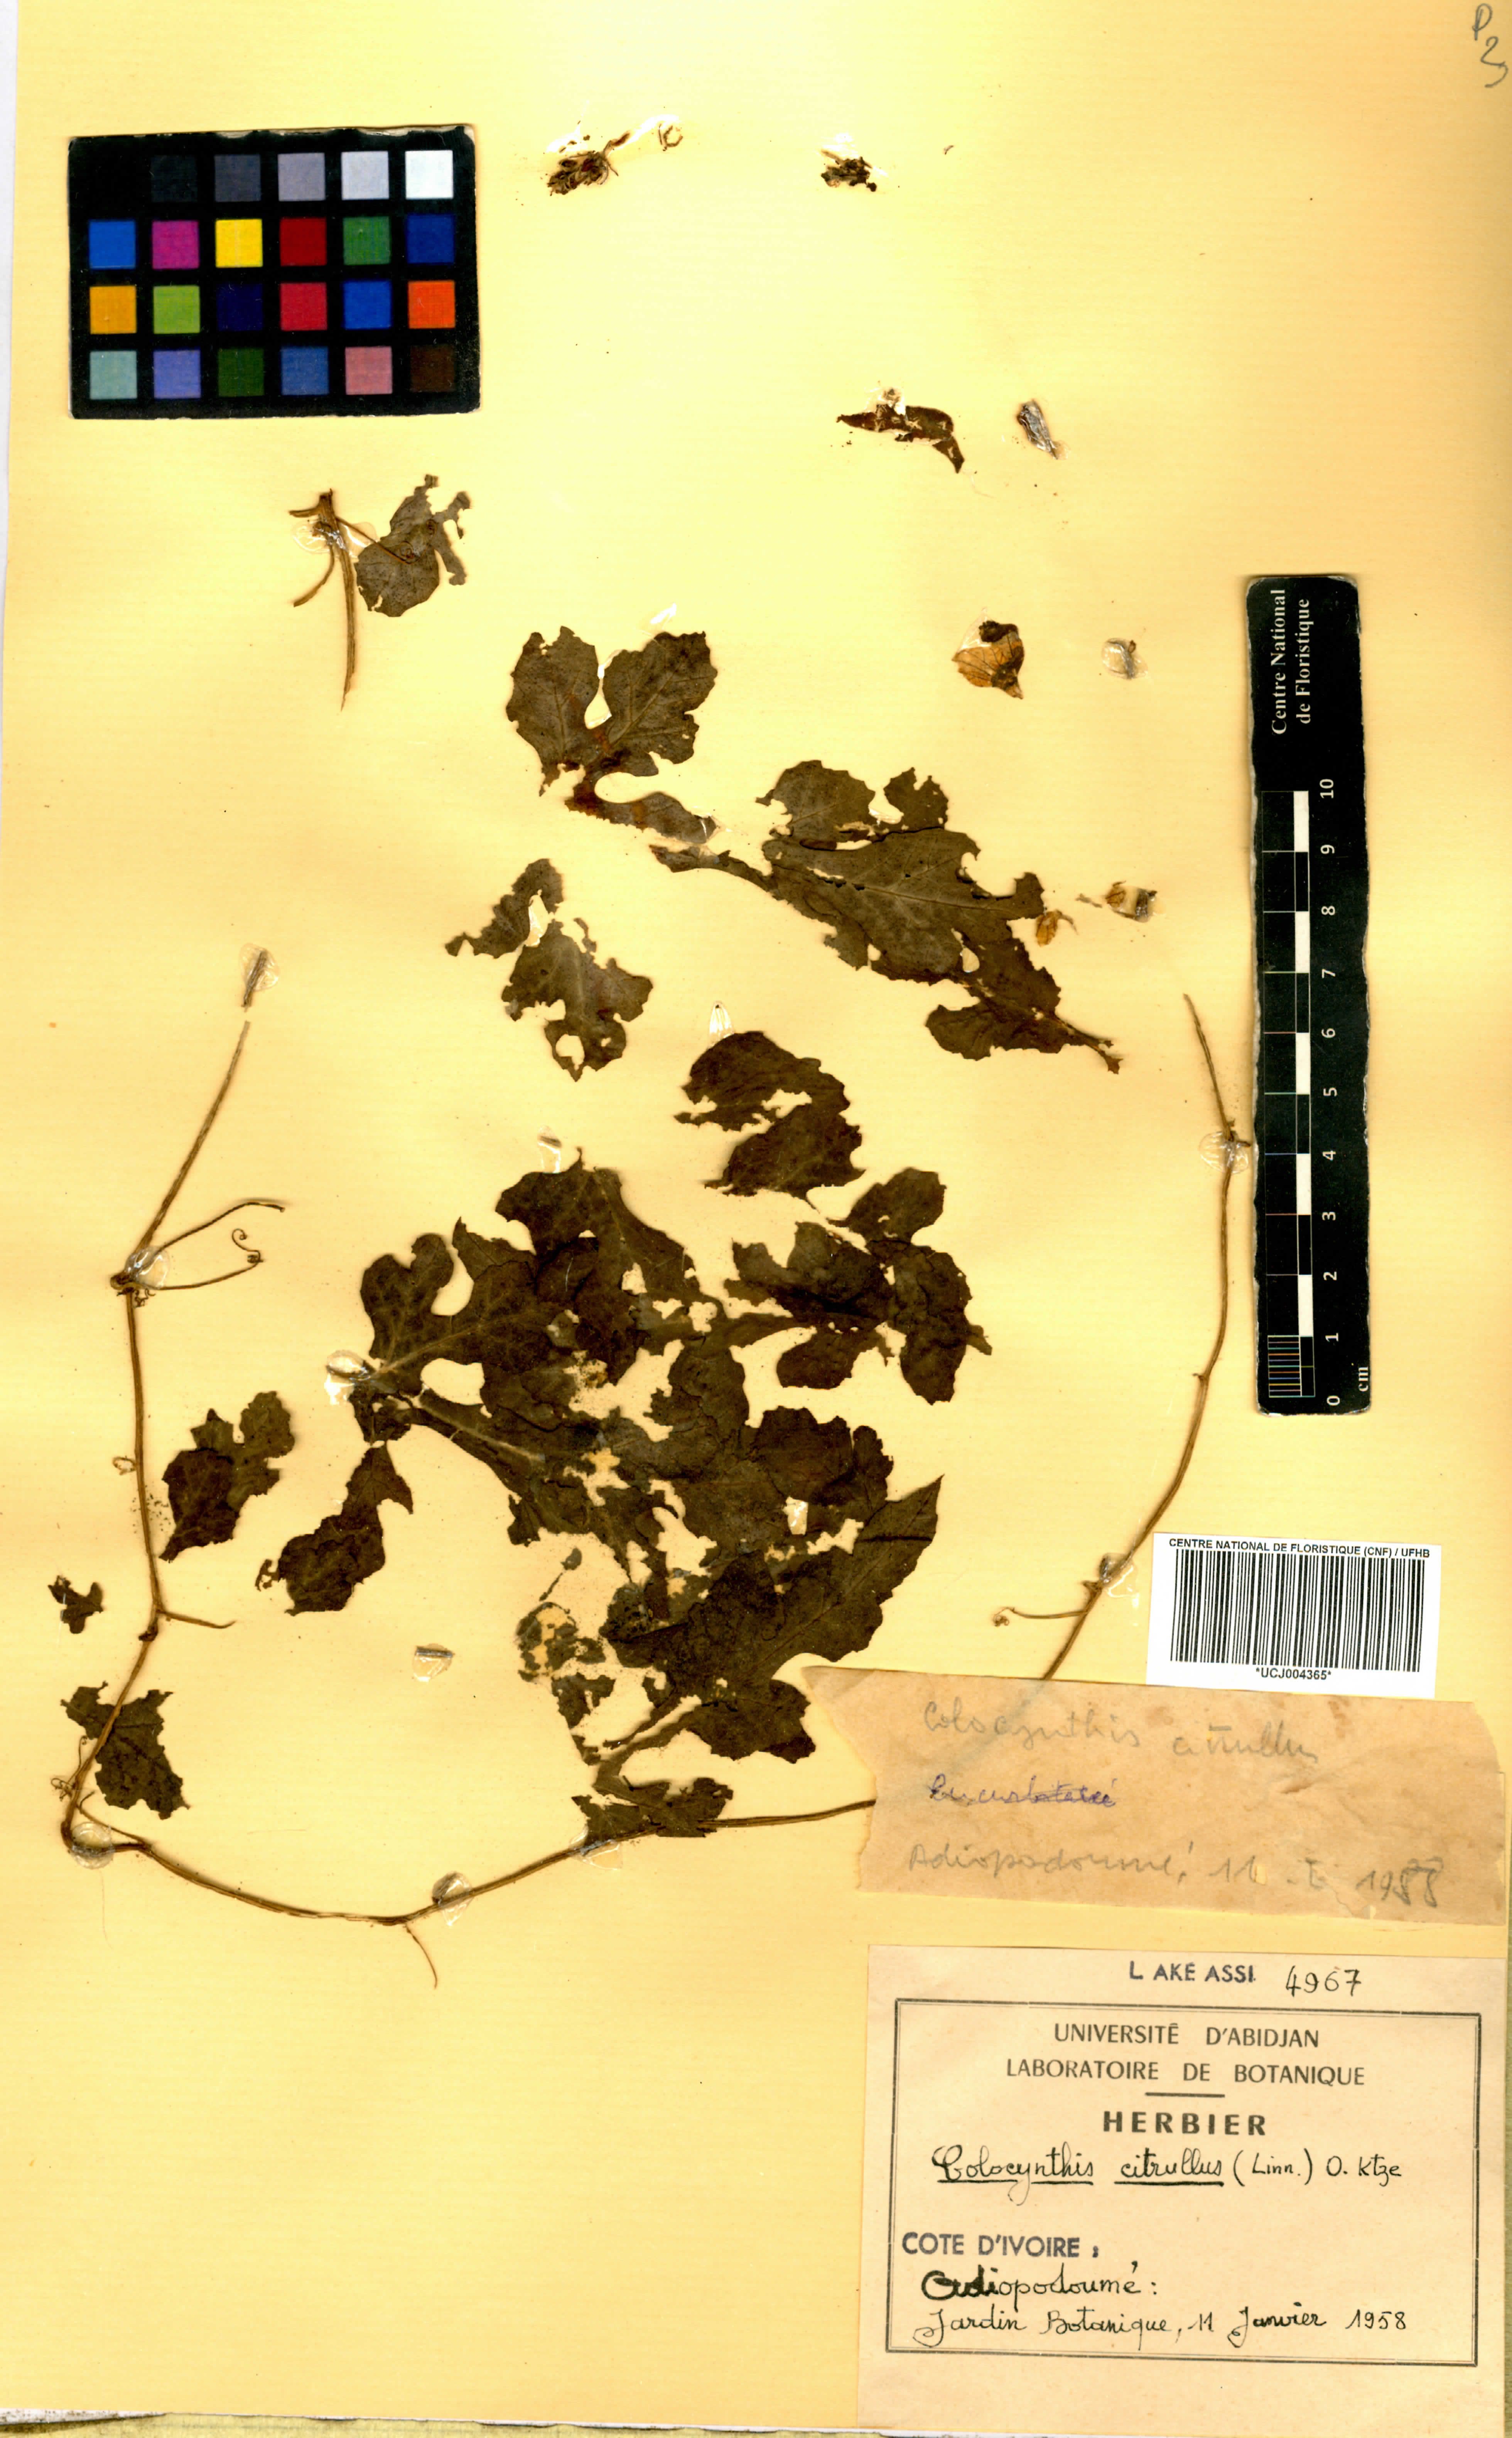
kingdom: Plantae
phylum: Tracheophyta
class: Magnoliopsida
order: Cucurbitales
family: Cucurbitaceae
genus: Citrullus
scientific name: Citrullus lanatus
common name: Watermelon
